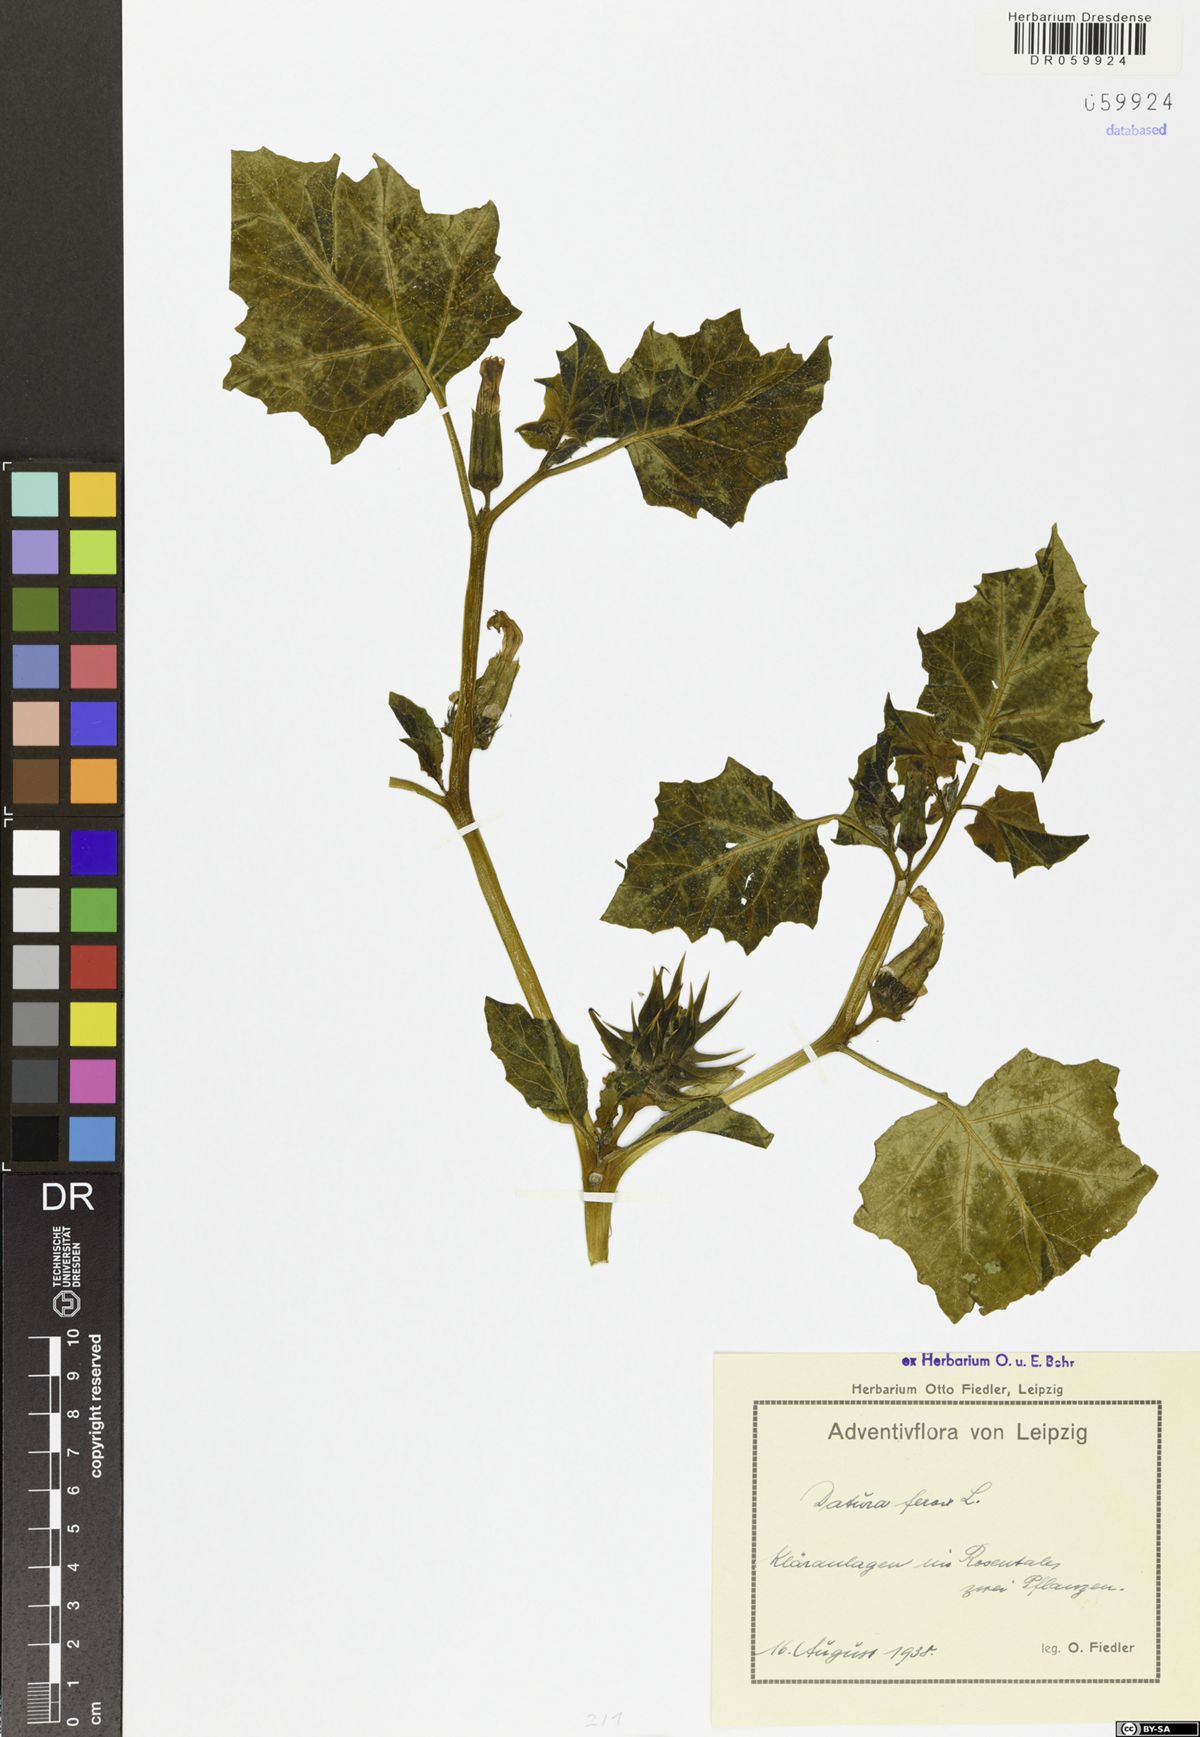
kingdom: Plantae
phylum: Tracheophyta
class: Magnoliopsida
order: Solanales
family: Solanaceae
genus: Datura
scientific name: Datura ferox
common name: Angel's-trumpets
